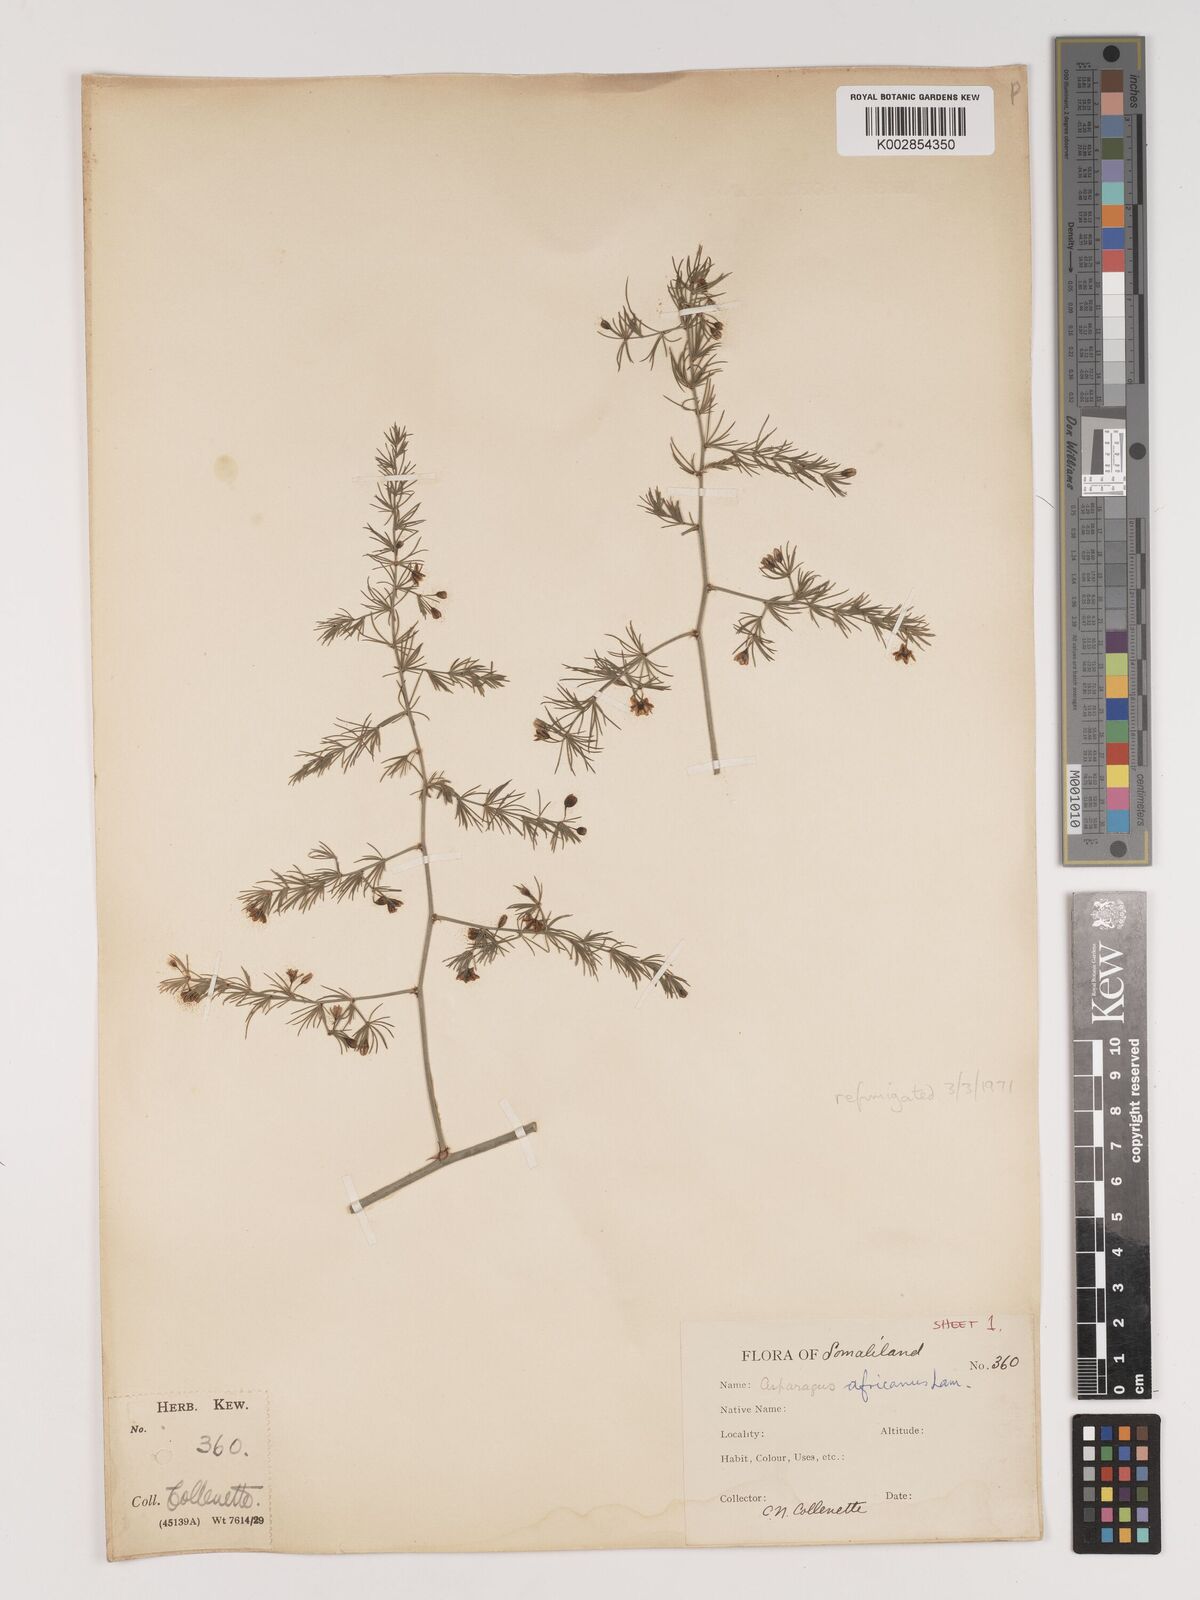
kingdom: Plantae
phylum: Tracheophyta
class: Liliopsida
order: Asparagales
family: Asparagaceae
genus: Asparagus
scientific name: Asparagus africanus
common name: Asparagus-fern
